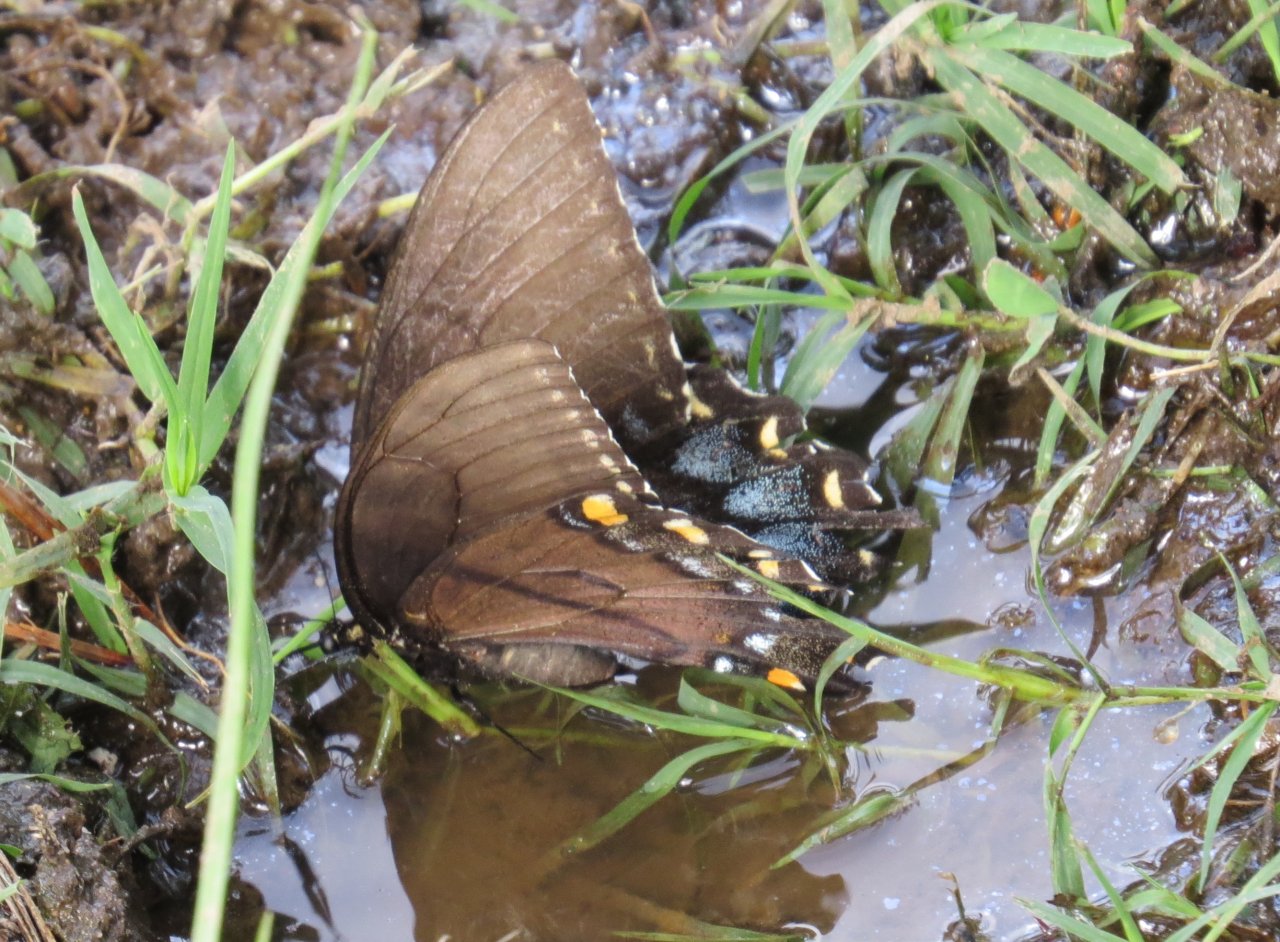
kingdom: Animalia
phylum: Arthropoda
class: Insecta
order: Lepidoptera
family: Papilionidae
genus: Pterourus
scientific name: Pterourus glaucus
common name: Eastern Tiger Swallowtail
